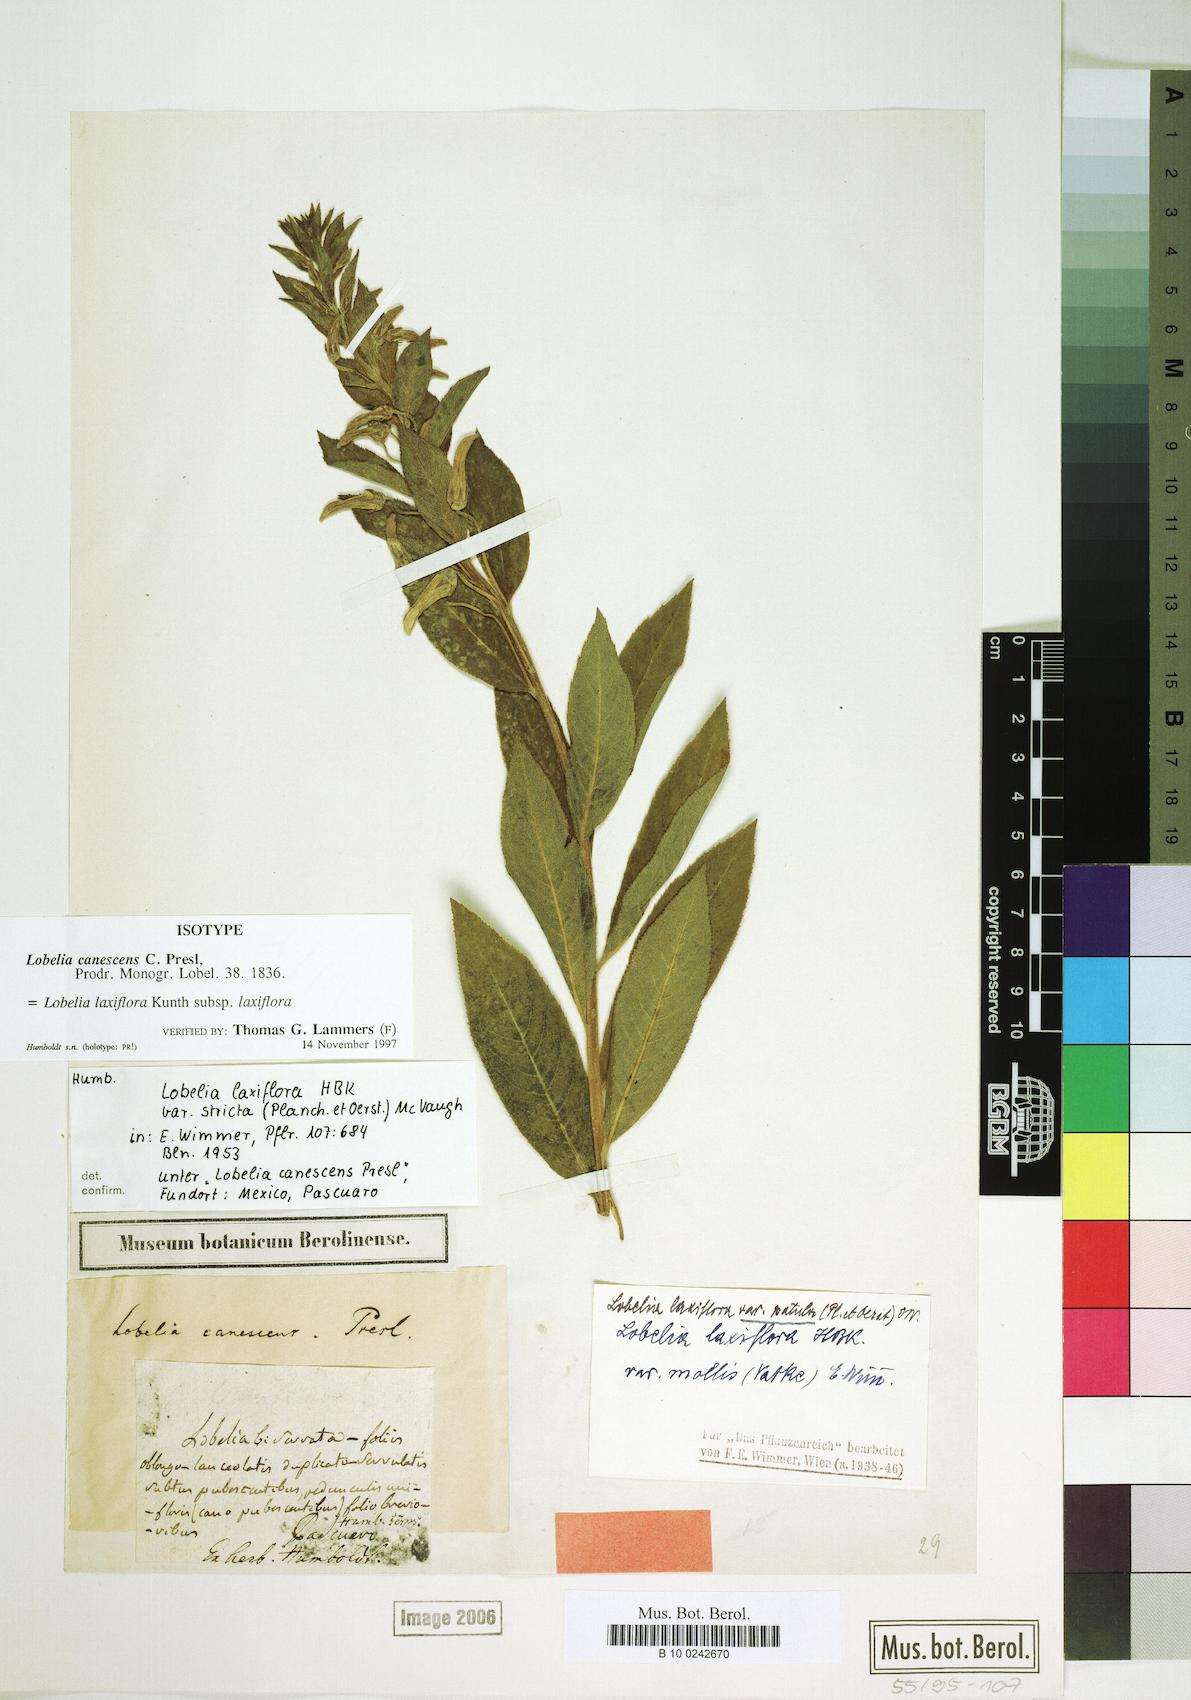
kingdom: Plantae
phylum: Tracheophyta
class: Magnoliopsida
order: Asterales
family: Campanulaceae
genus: Lobelia
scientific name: Lobelia laxiflora
